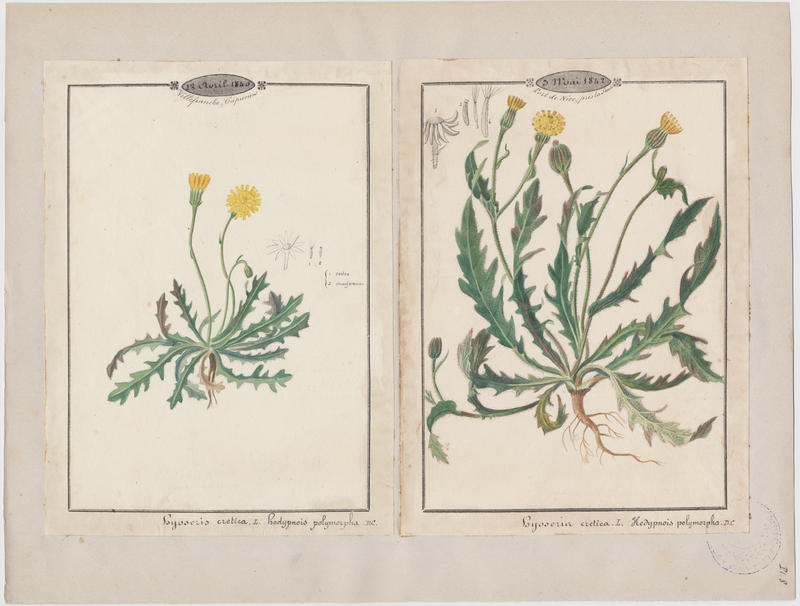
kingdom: Plantae
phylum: Tracheophyta
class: Magnoliopsida
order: Asterales
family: Asteraceae
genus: Hedypnois
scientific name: Hedypnois cretica
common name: Scaly hawkbit
